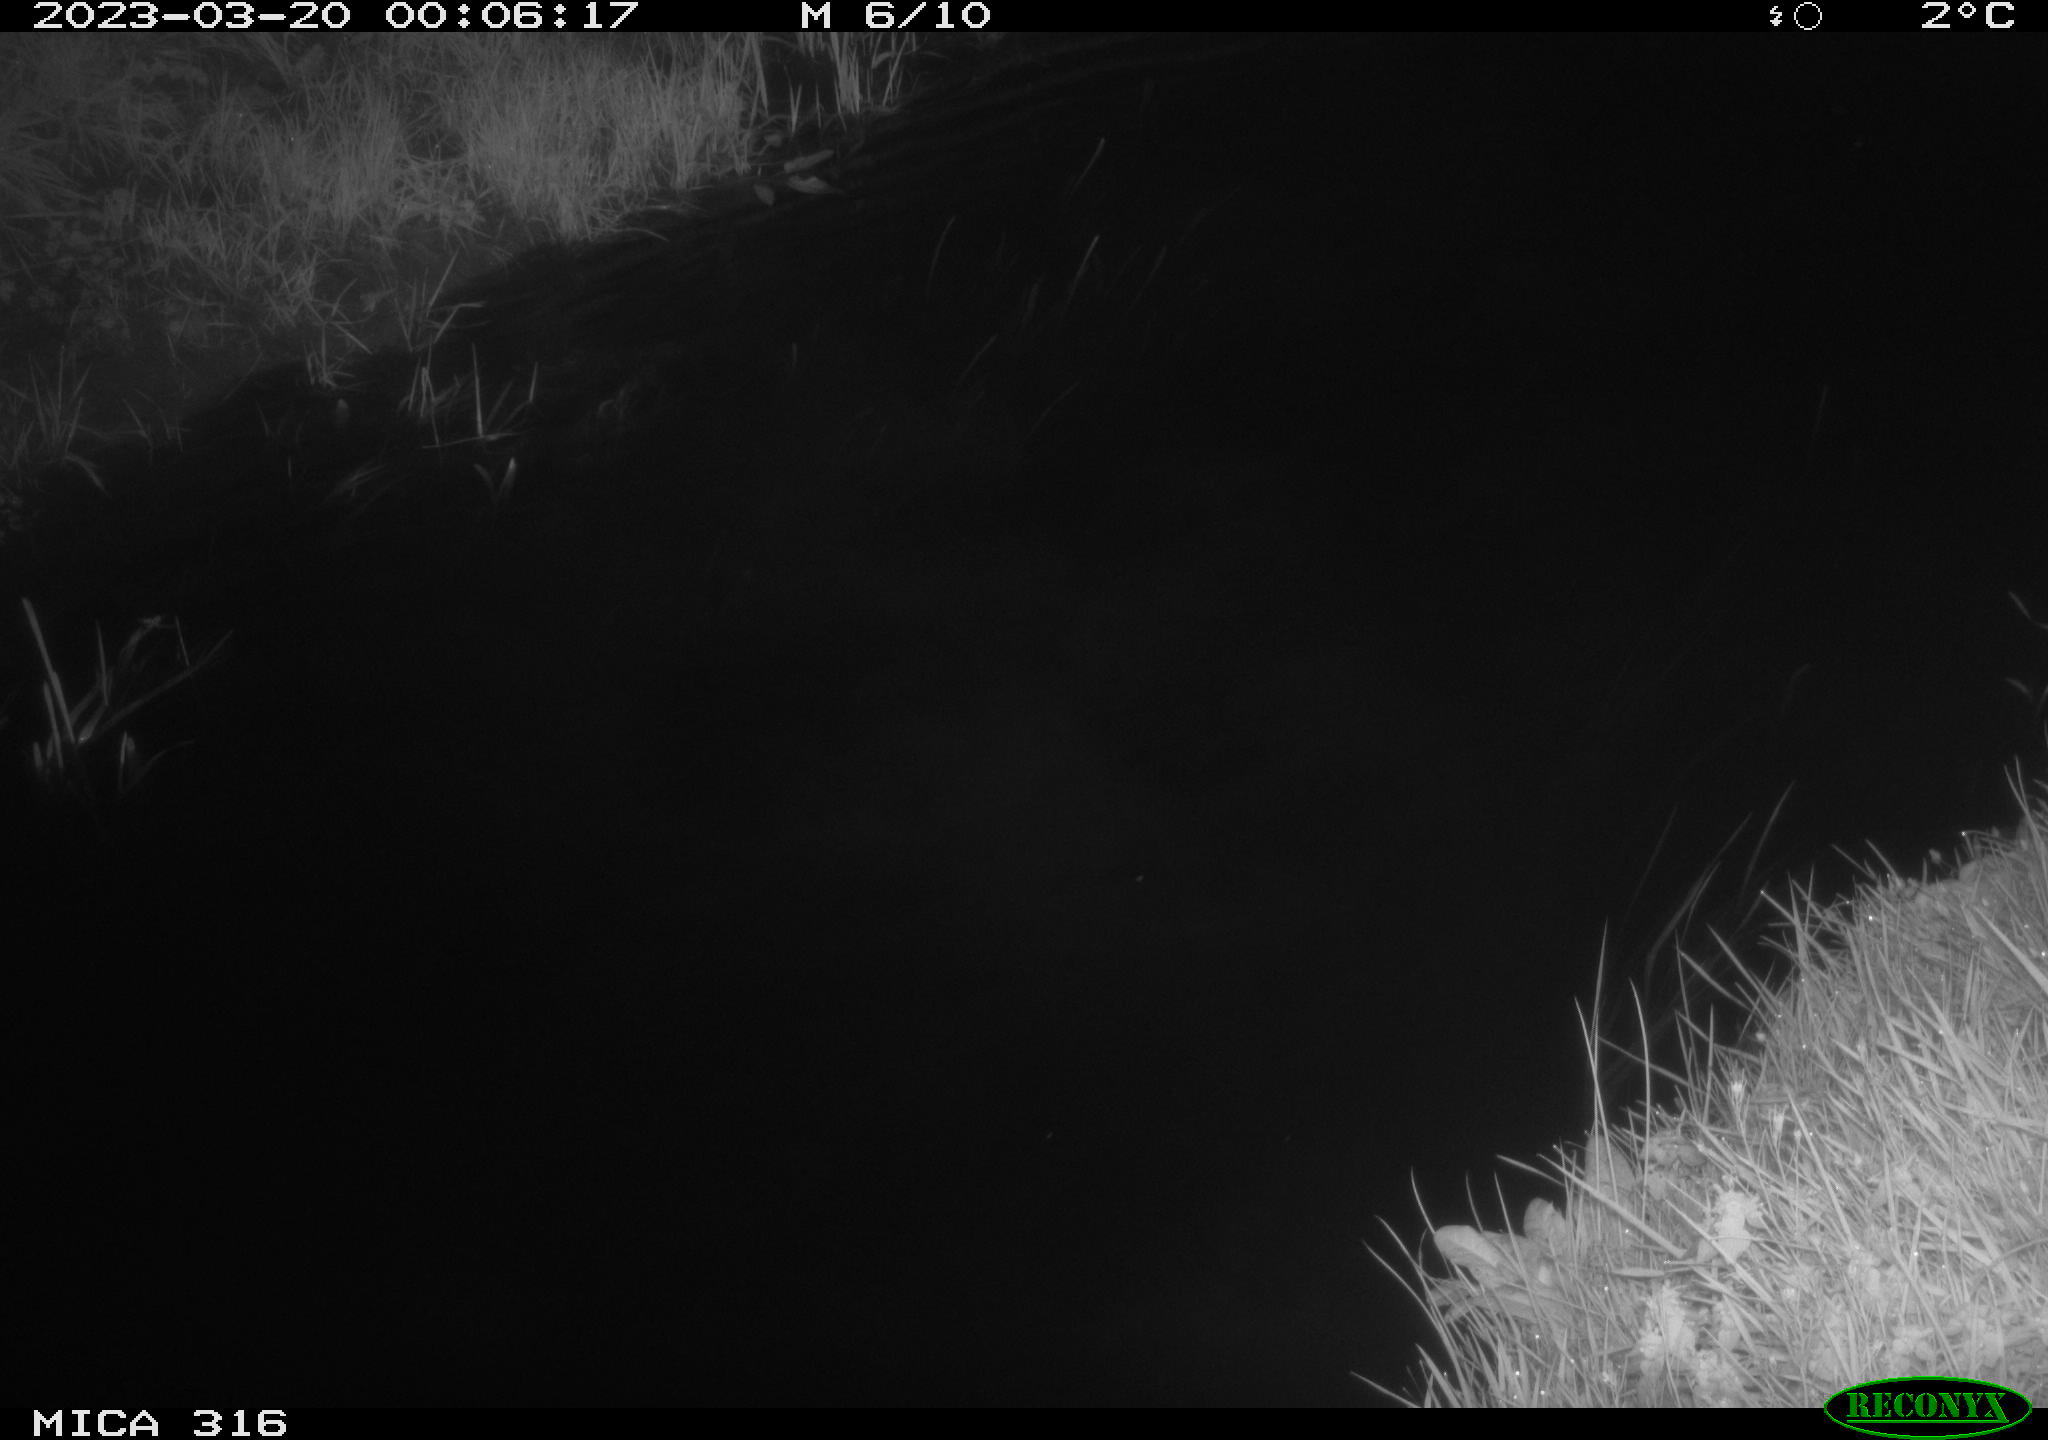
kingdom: Animalia
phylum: Chordata
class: Aves
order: Anseriformes
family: Anatidae
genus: Anas
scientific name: Anas
